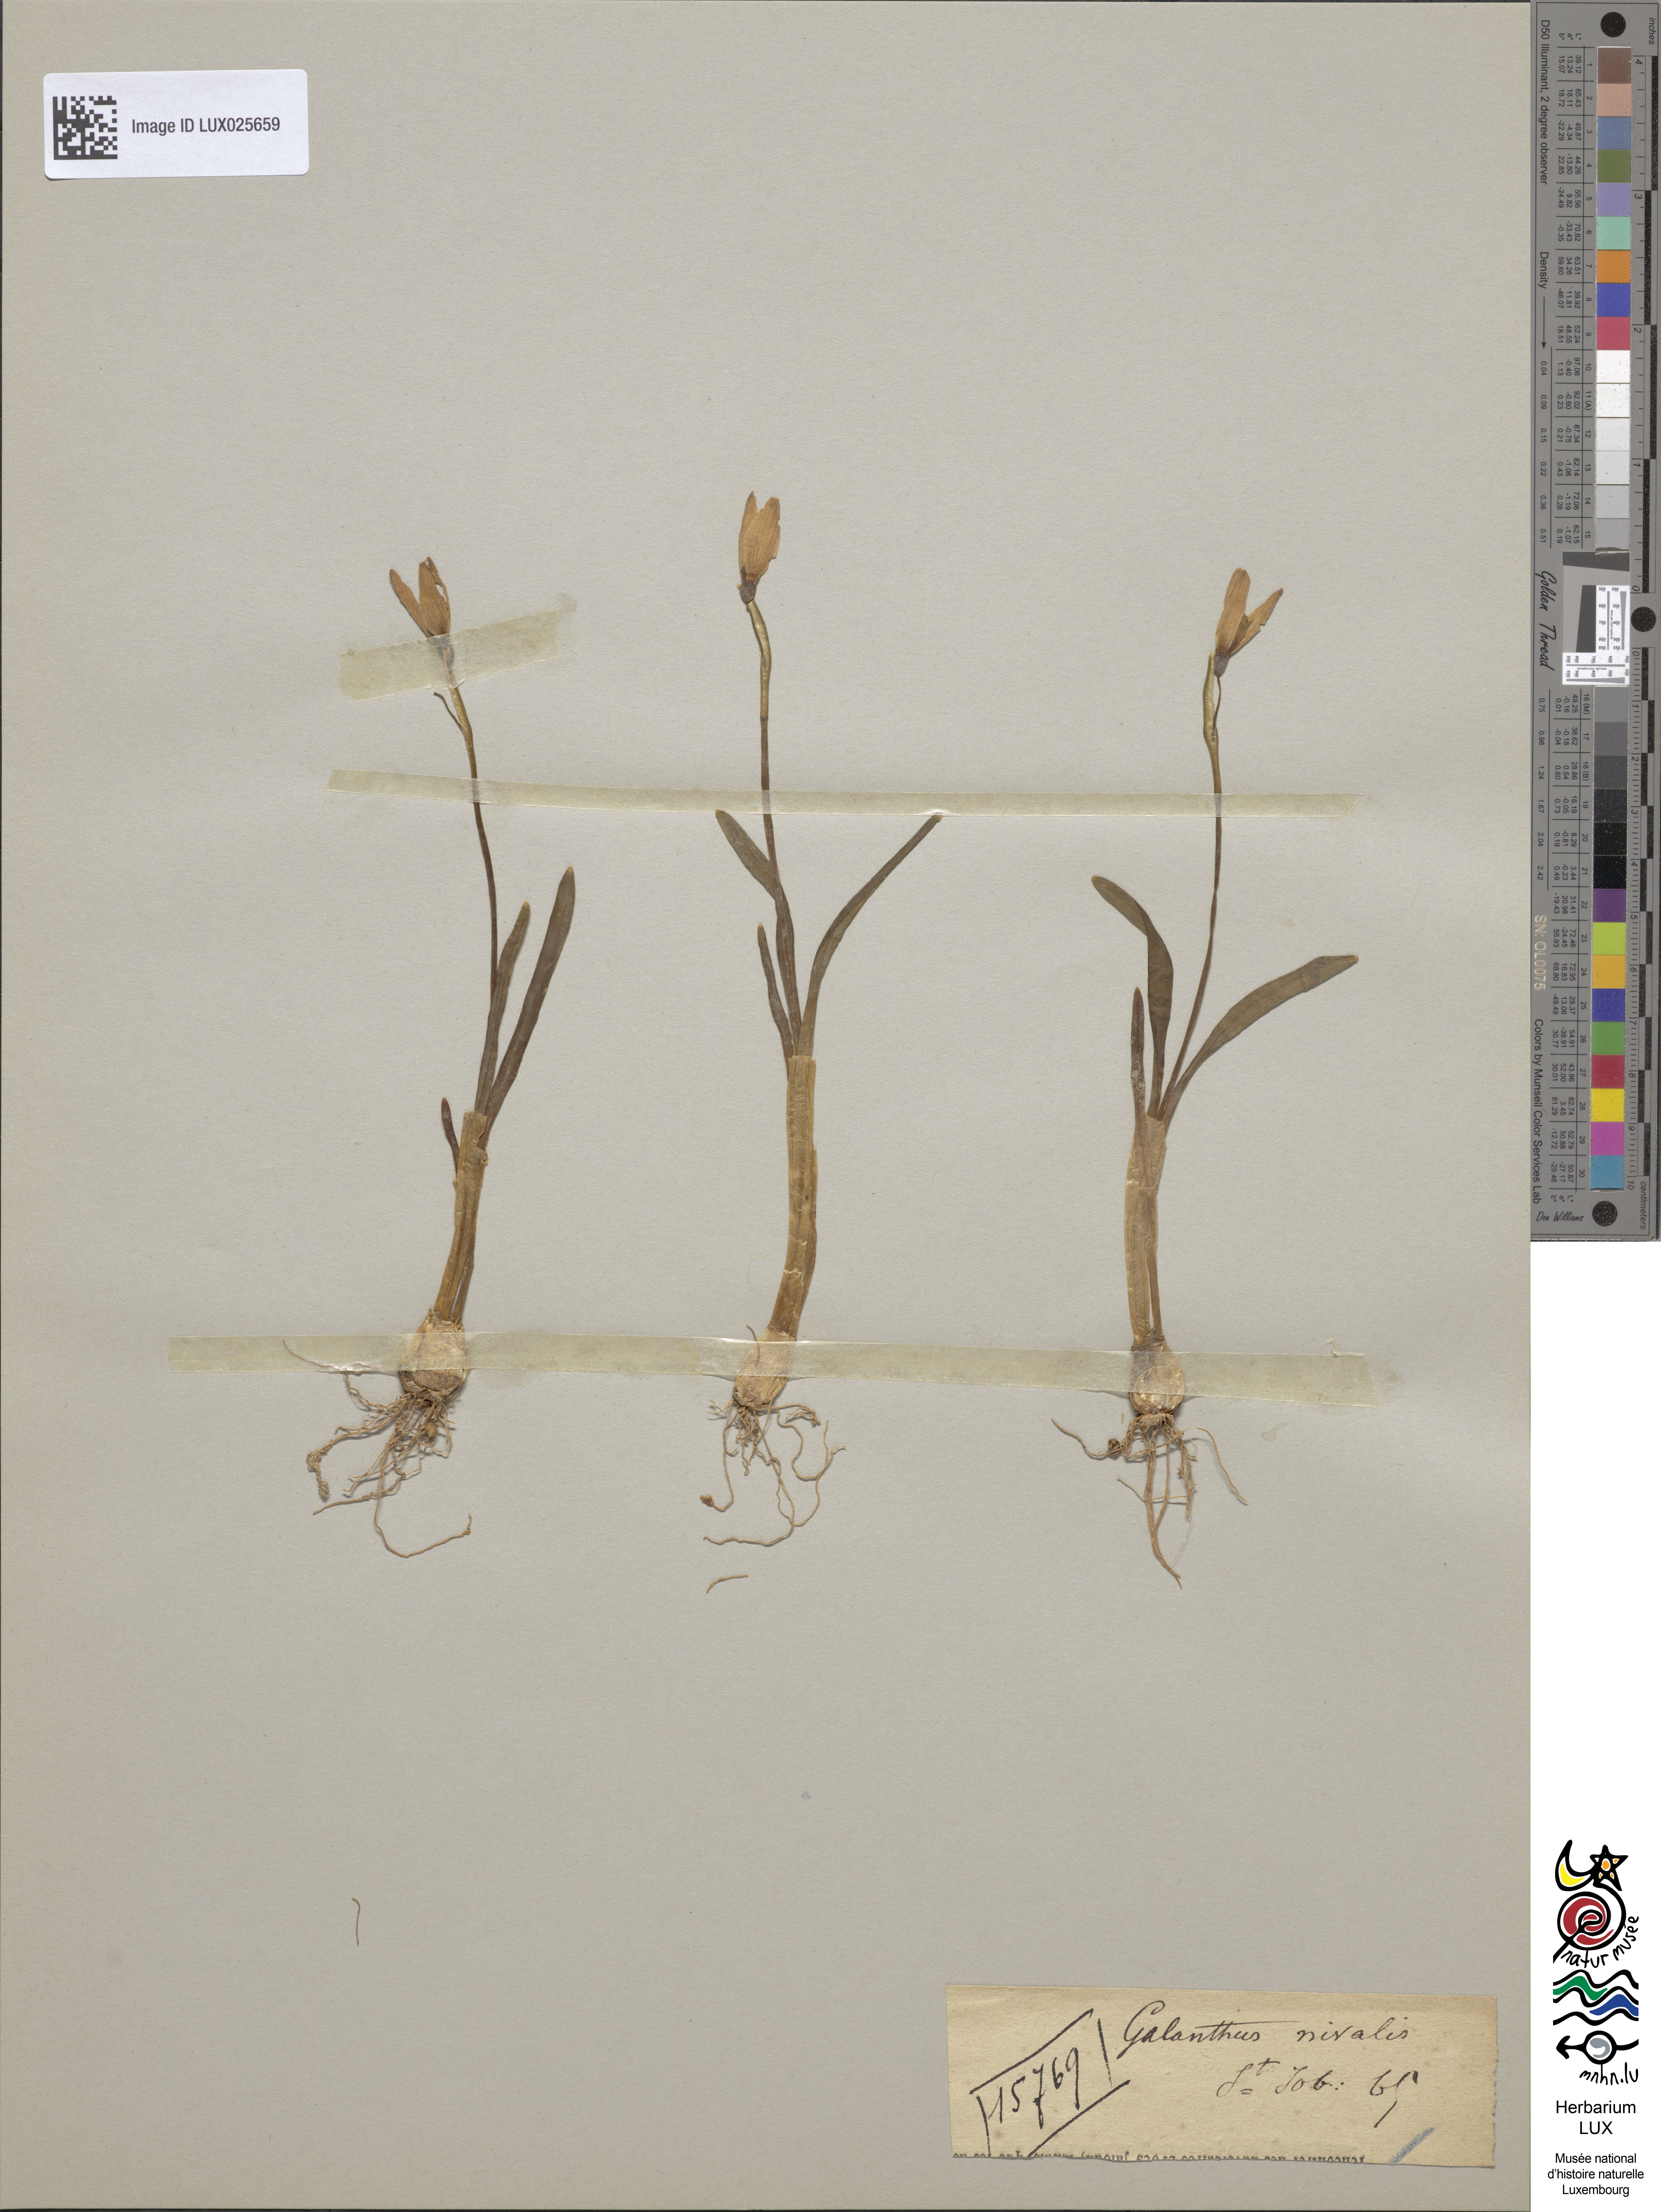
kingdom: Plantae
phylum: Tracheophyta
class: Liliopsida
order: Asparagales
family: Amaryllidaceae
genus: Galanthus
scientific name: Galanthus nivalis
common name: Snowdrop
